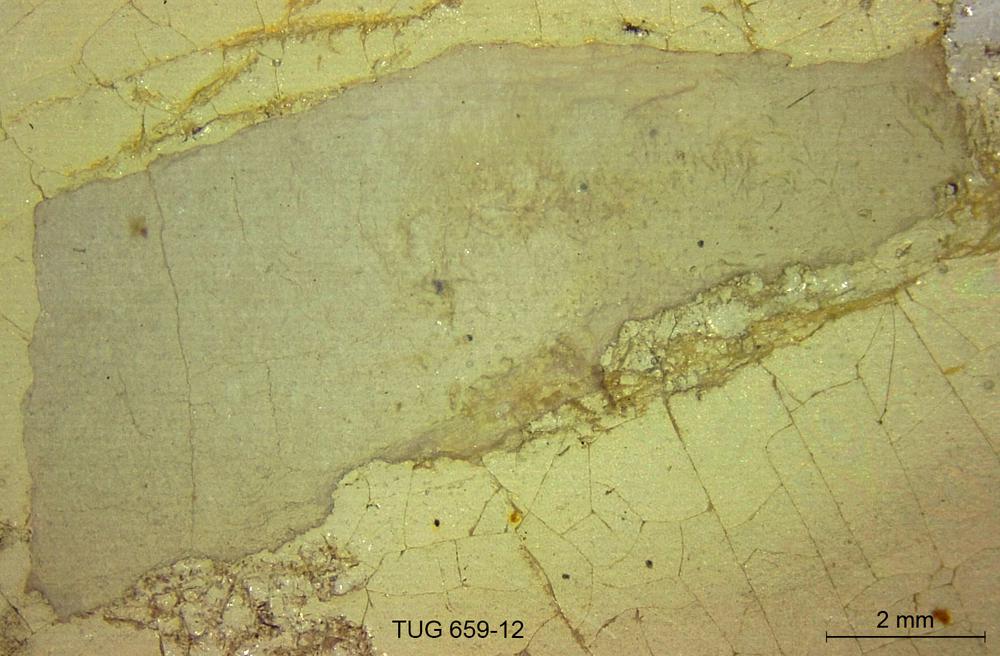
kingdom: Animalia
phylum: Porifera
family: Stromatoporidae
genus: Stromatopora
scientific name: Stromatopora
